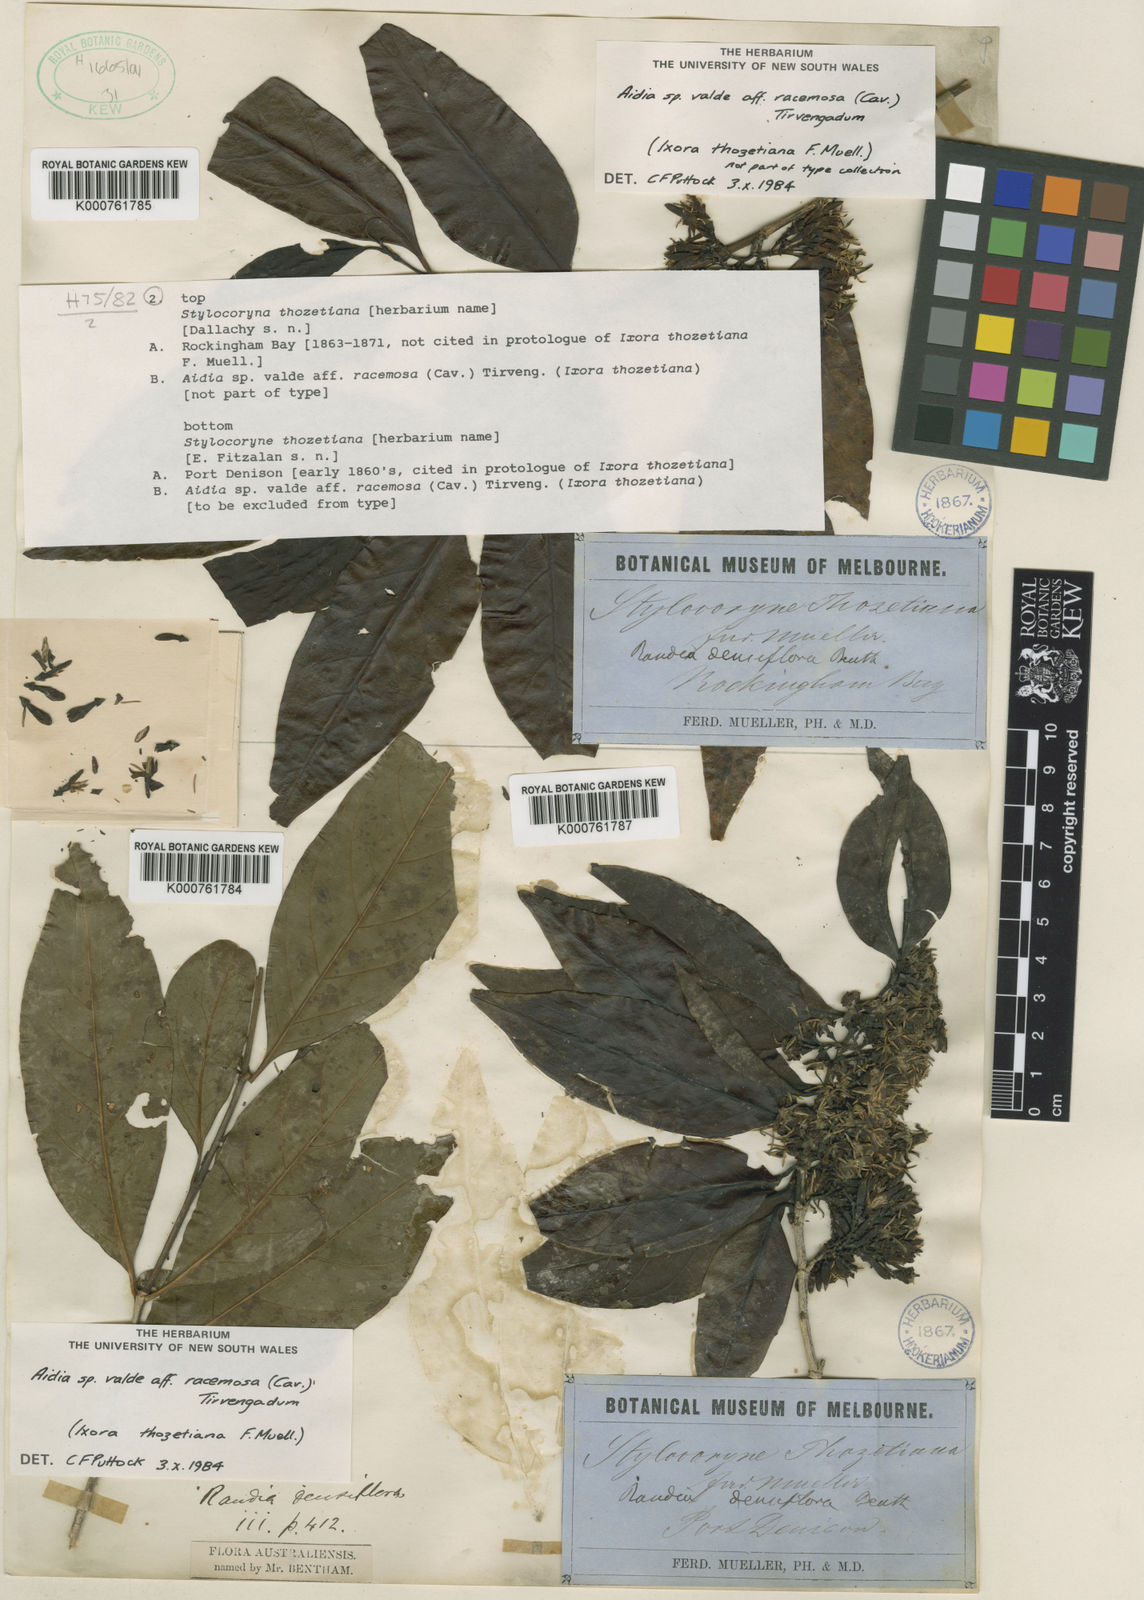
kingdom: Plantae
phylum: Tracheophyta
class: Magnoliopsida
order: Gentianales
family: Rubiaceae
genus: Aidia
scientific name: Aidia racemosa
